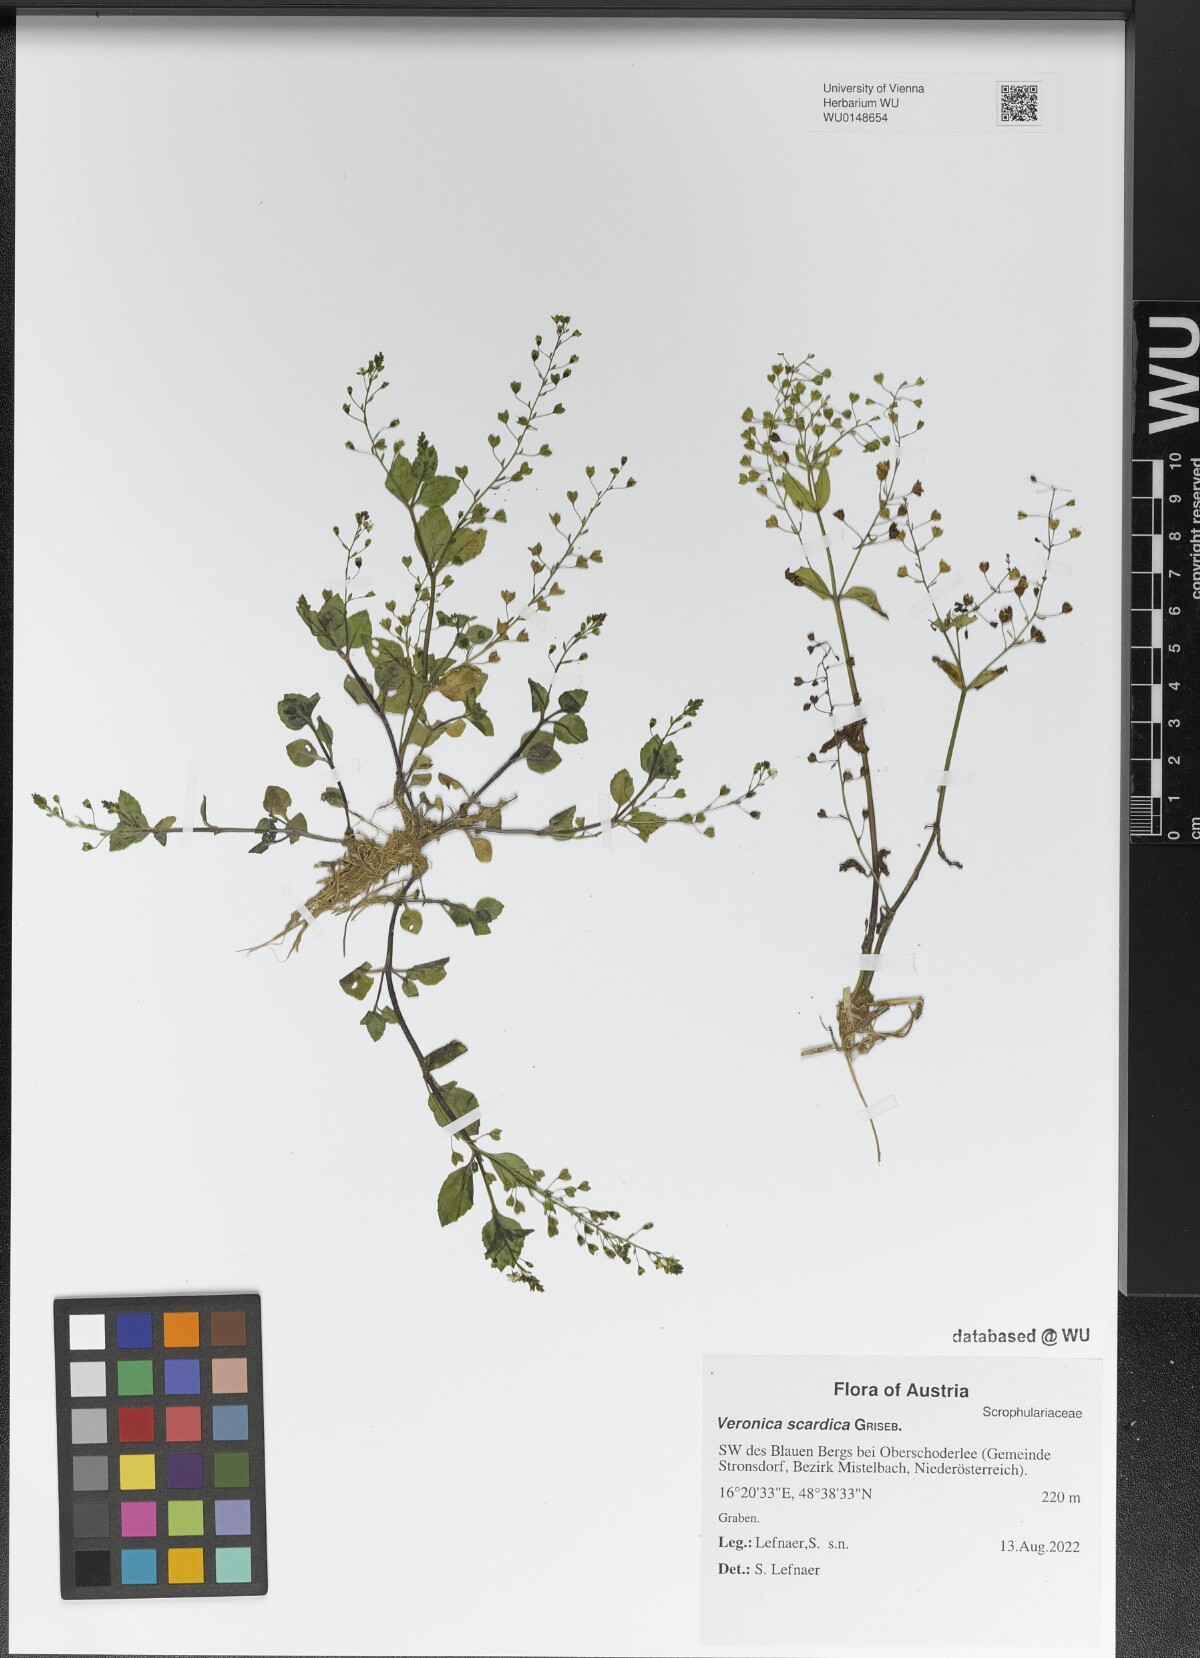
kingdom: Plantae
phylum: Tracheophyta
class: Magnoliopsida
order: Lamiales
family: Plantaginaceae
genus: Veronica
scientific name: Veronica scardica
